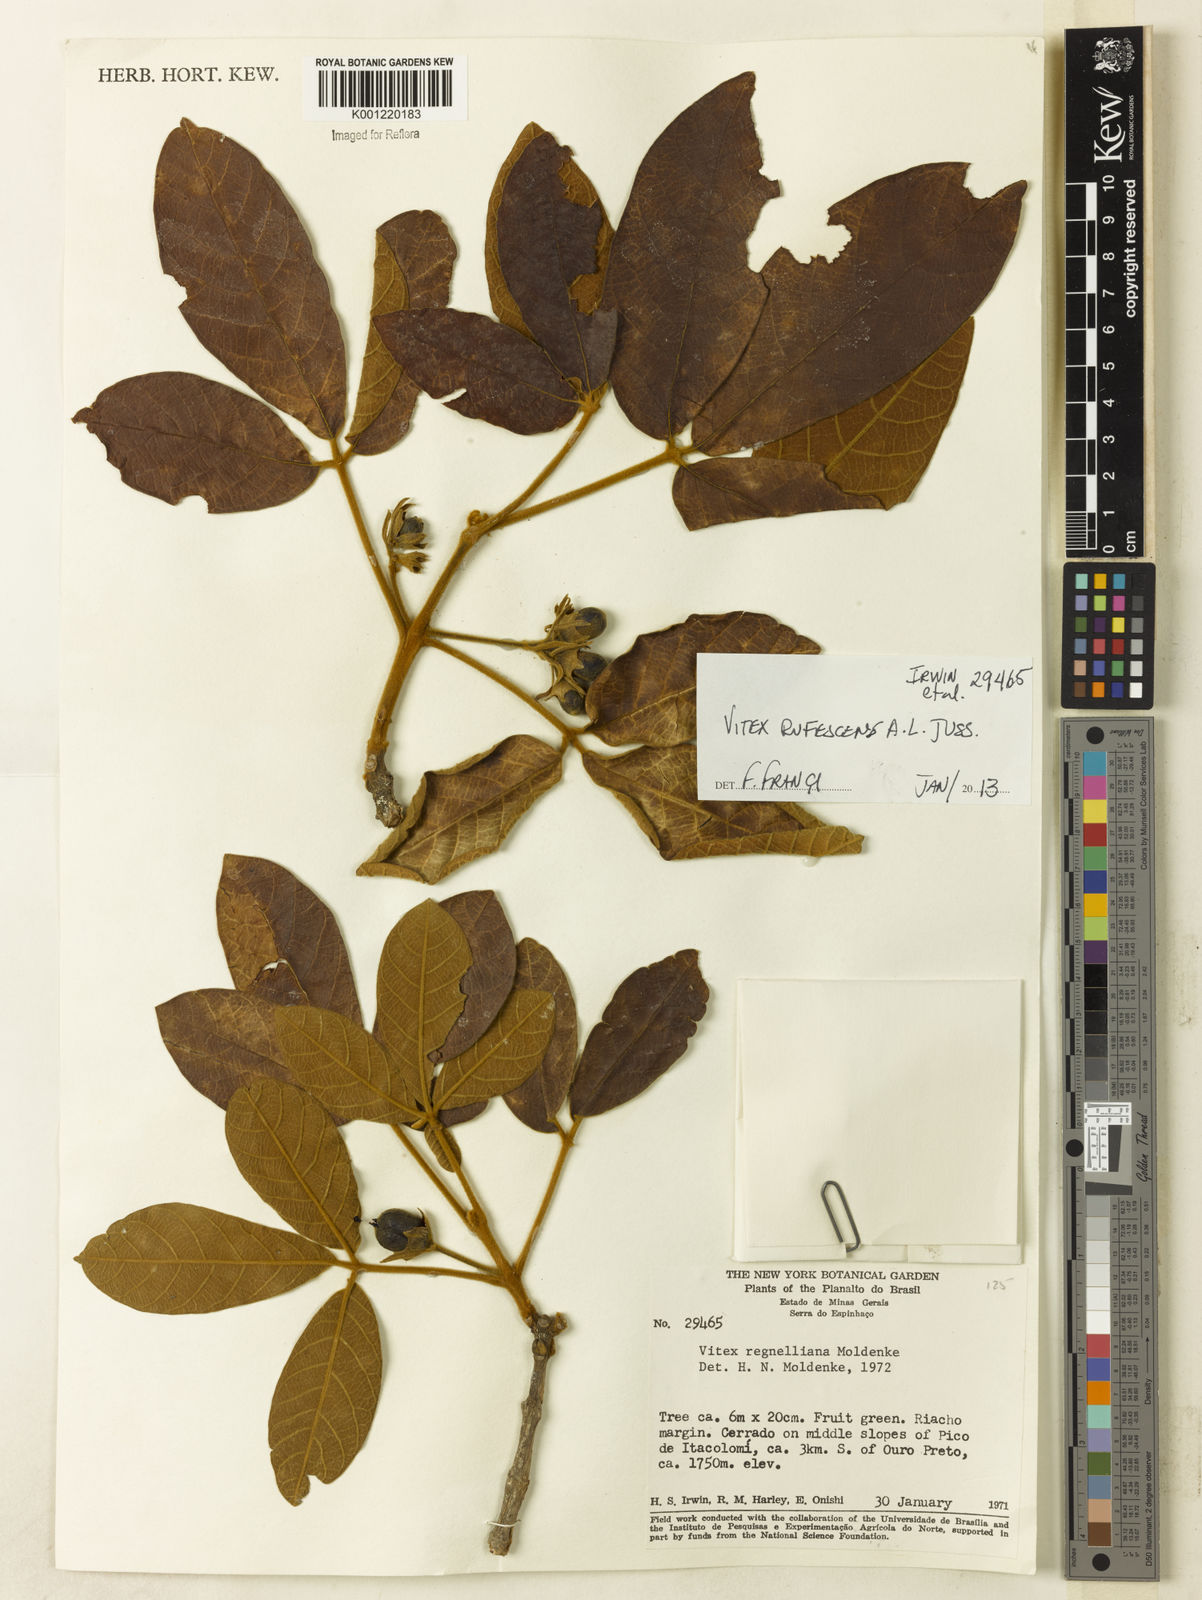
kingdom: Plantae
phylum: Tracheophyta
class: Magnoliopsida
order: Lamiales
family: Lamiaceae
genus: Vitex
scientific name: Vitex rufescens
